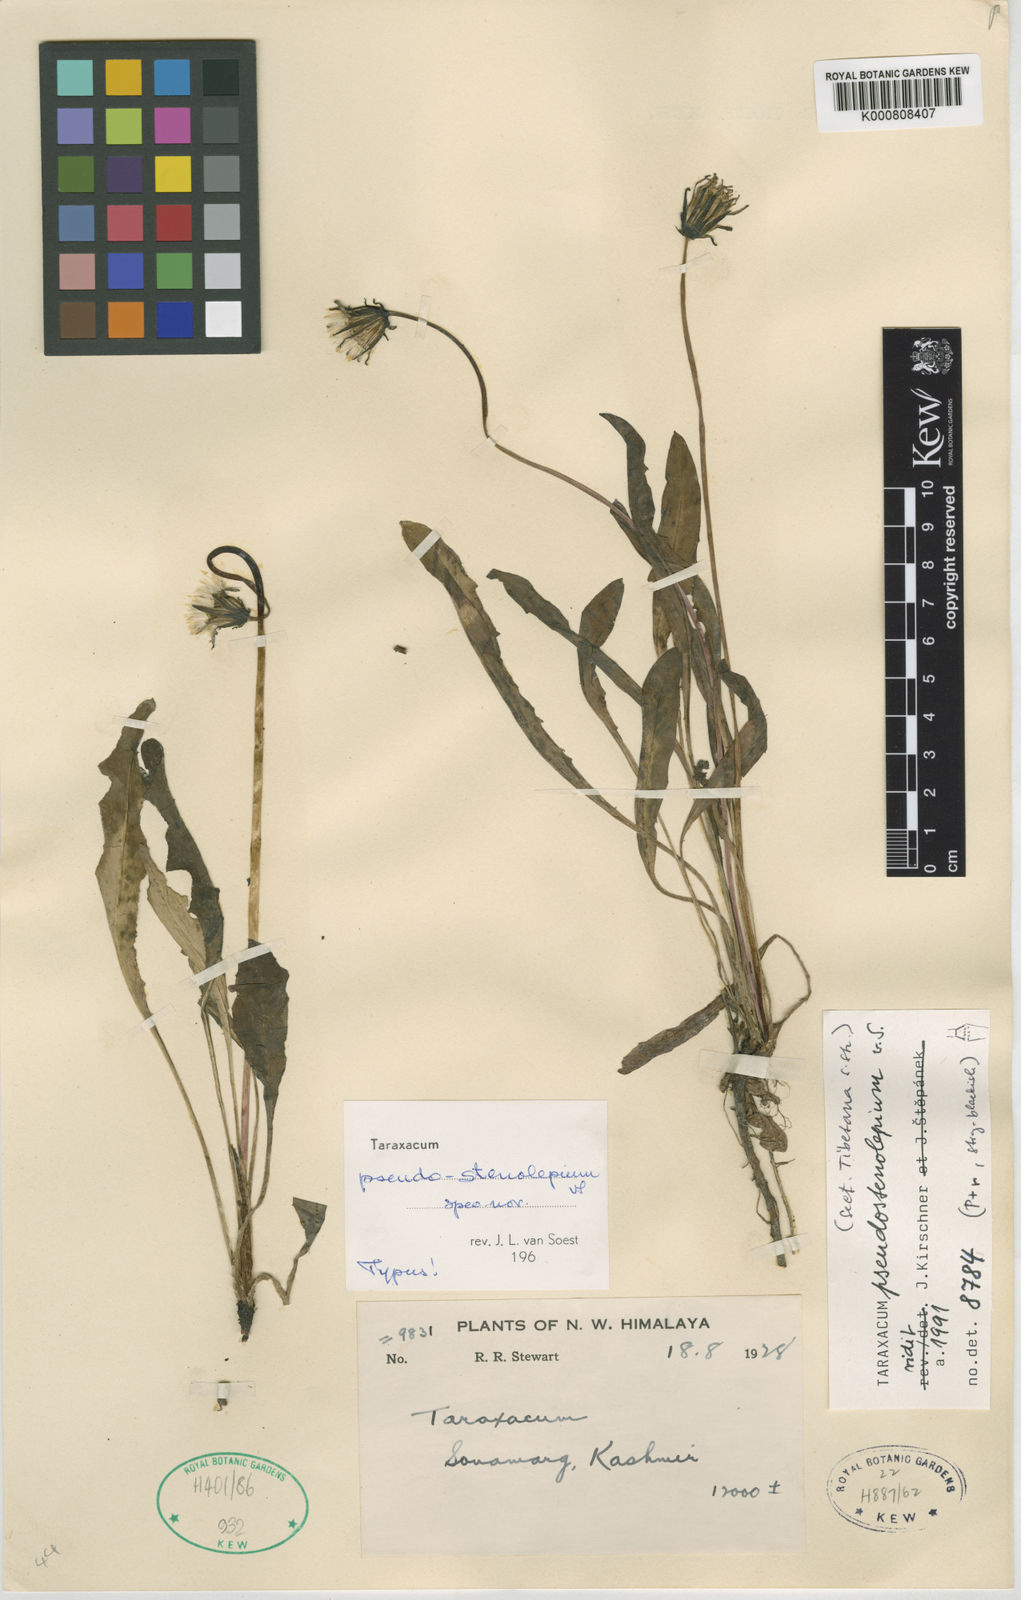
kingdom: Plantae
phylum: Tracheophyta
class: Magnoliopsida
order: Asterales
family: Asteraceae
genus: Taraxacum
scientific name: Taraxacum
